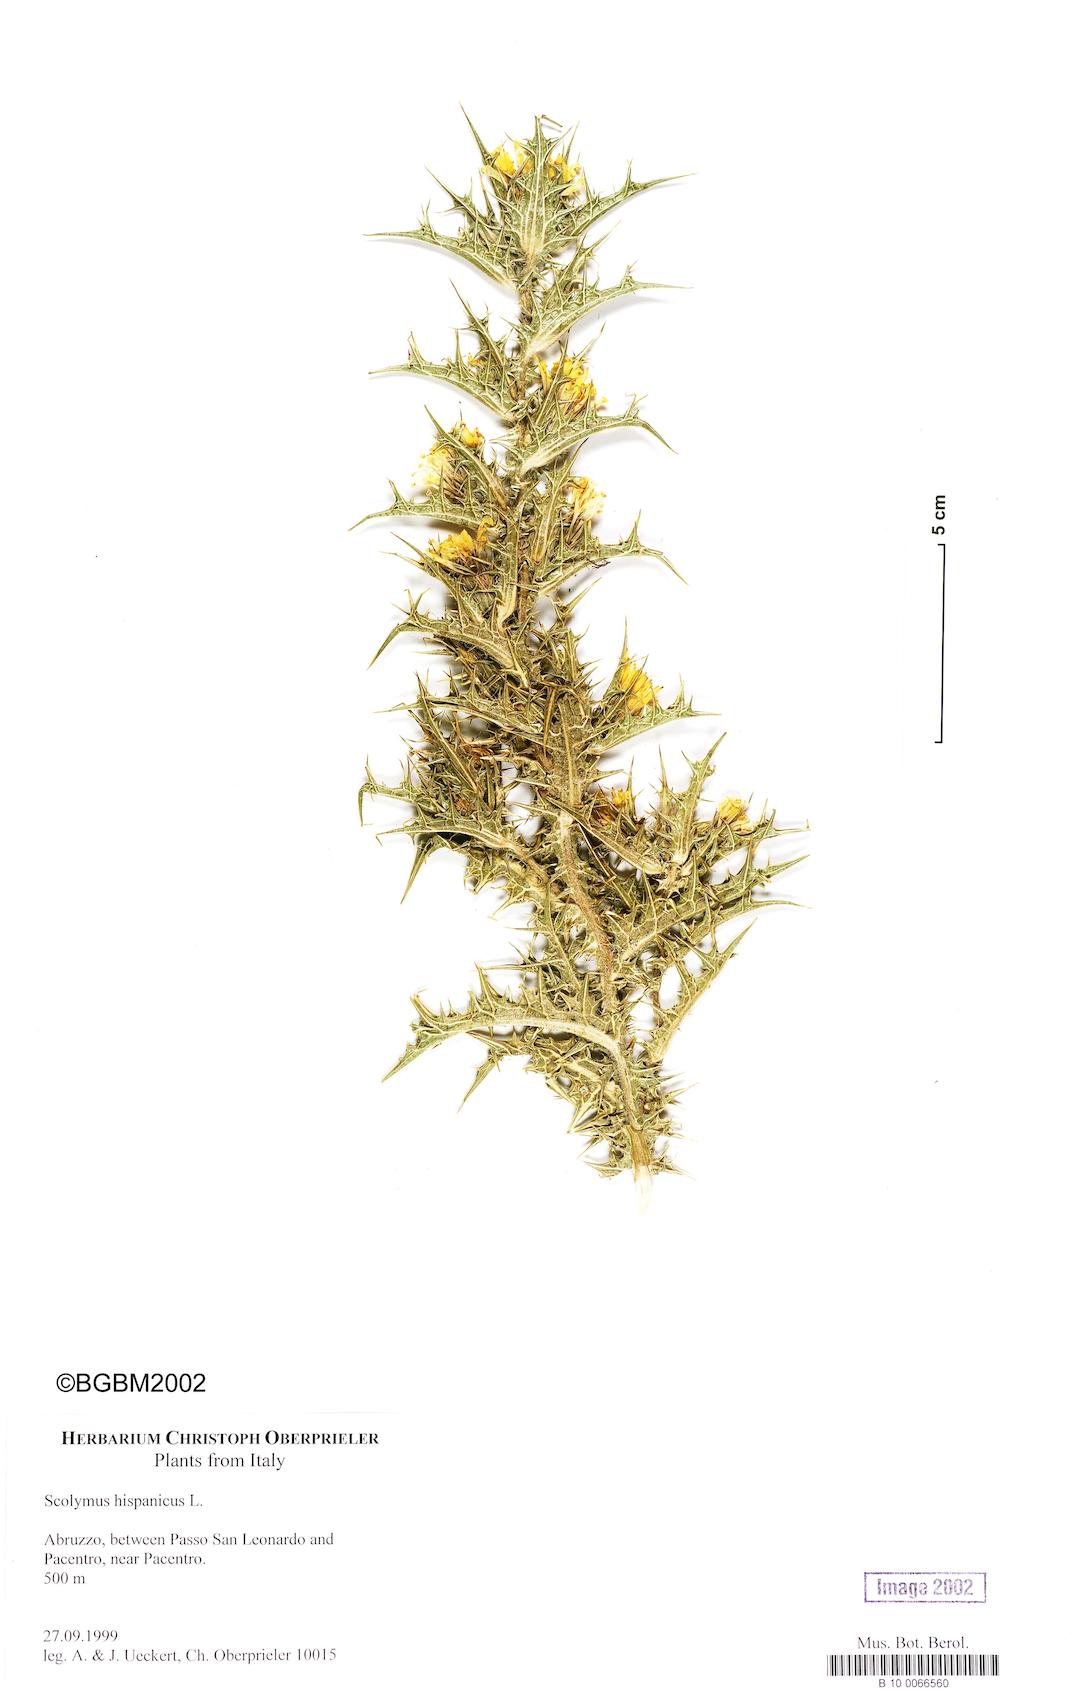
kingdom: Plantae
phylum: Tracheophyta
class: Magnoliopsida
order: Asterales
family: Asteraceae
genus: Scolymus
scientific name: Scolymus hispanicus
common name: Golden thistle
